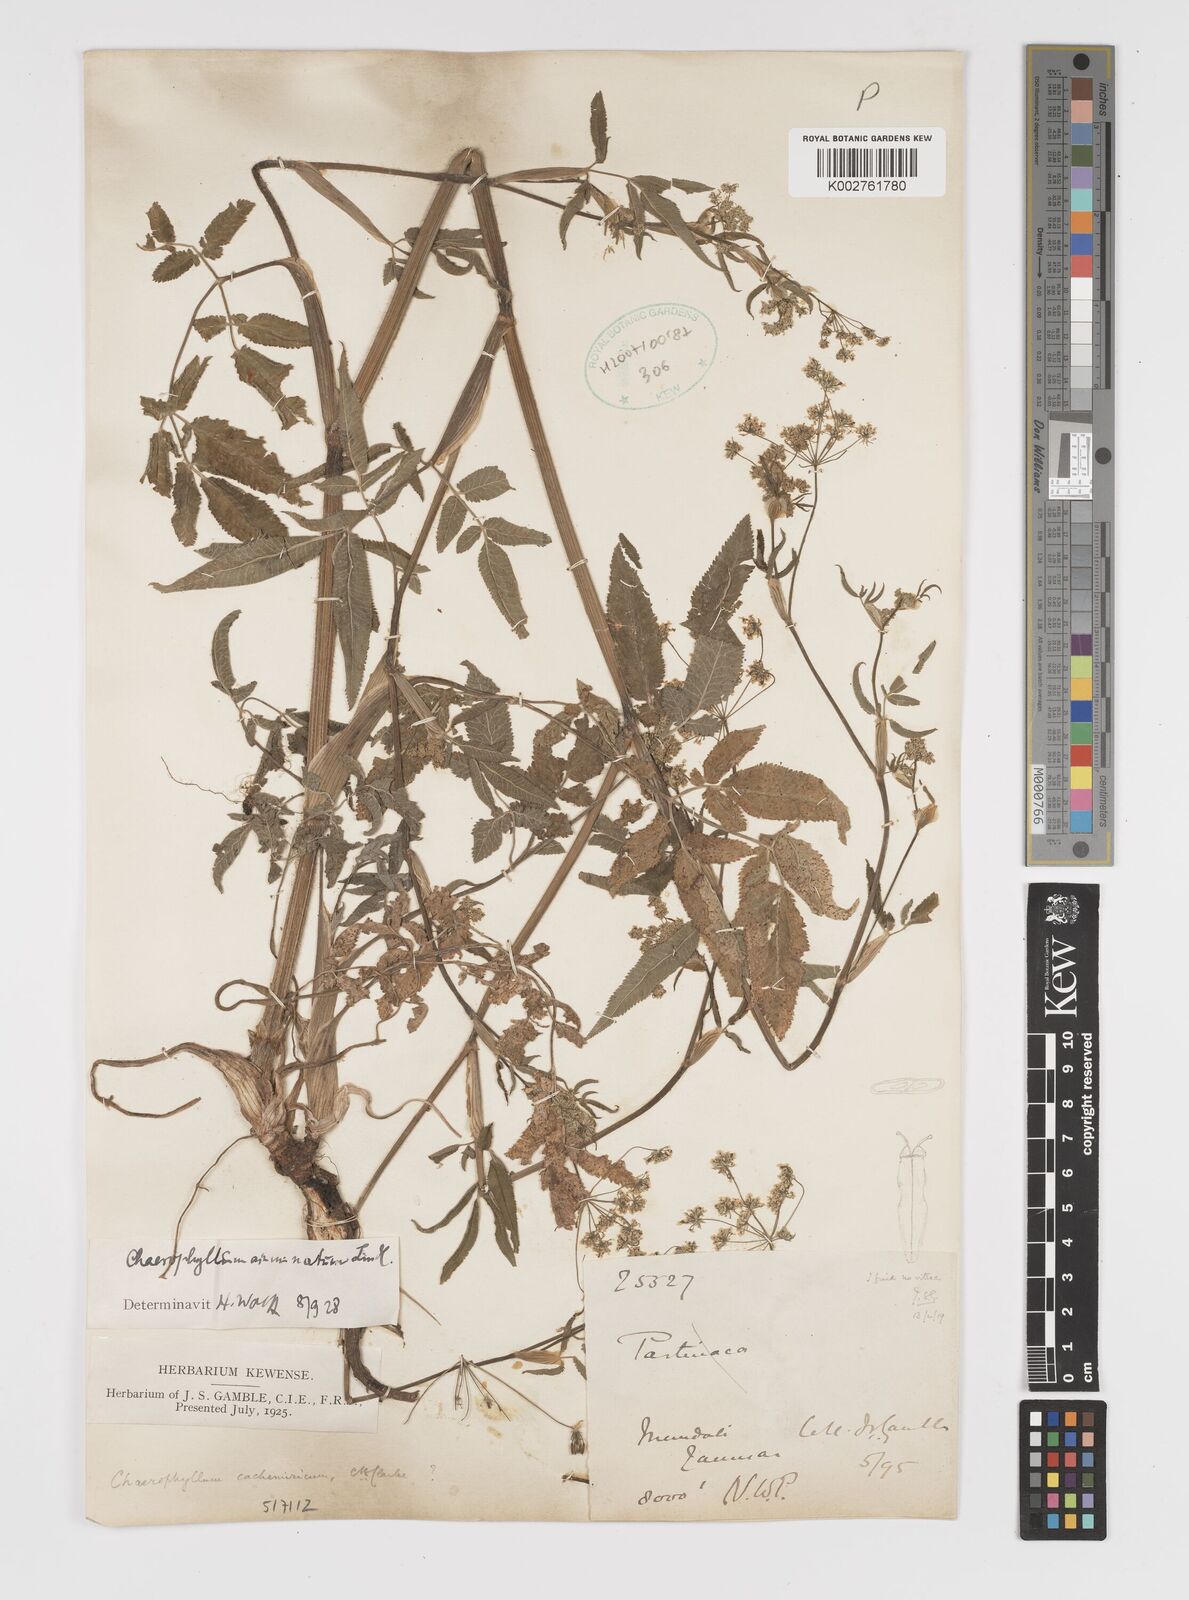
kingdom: Plantae
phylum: Tracheophyta
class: Magnoliopsida
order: Apiales
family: Apiaceae
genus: Chaerophyllum
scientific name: Chaerophyllum reflexum
